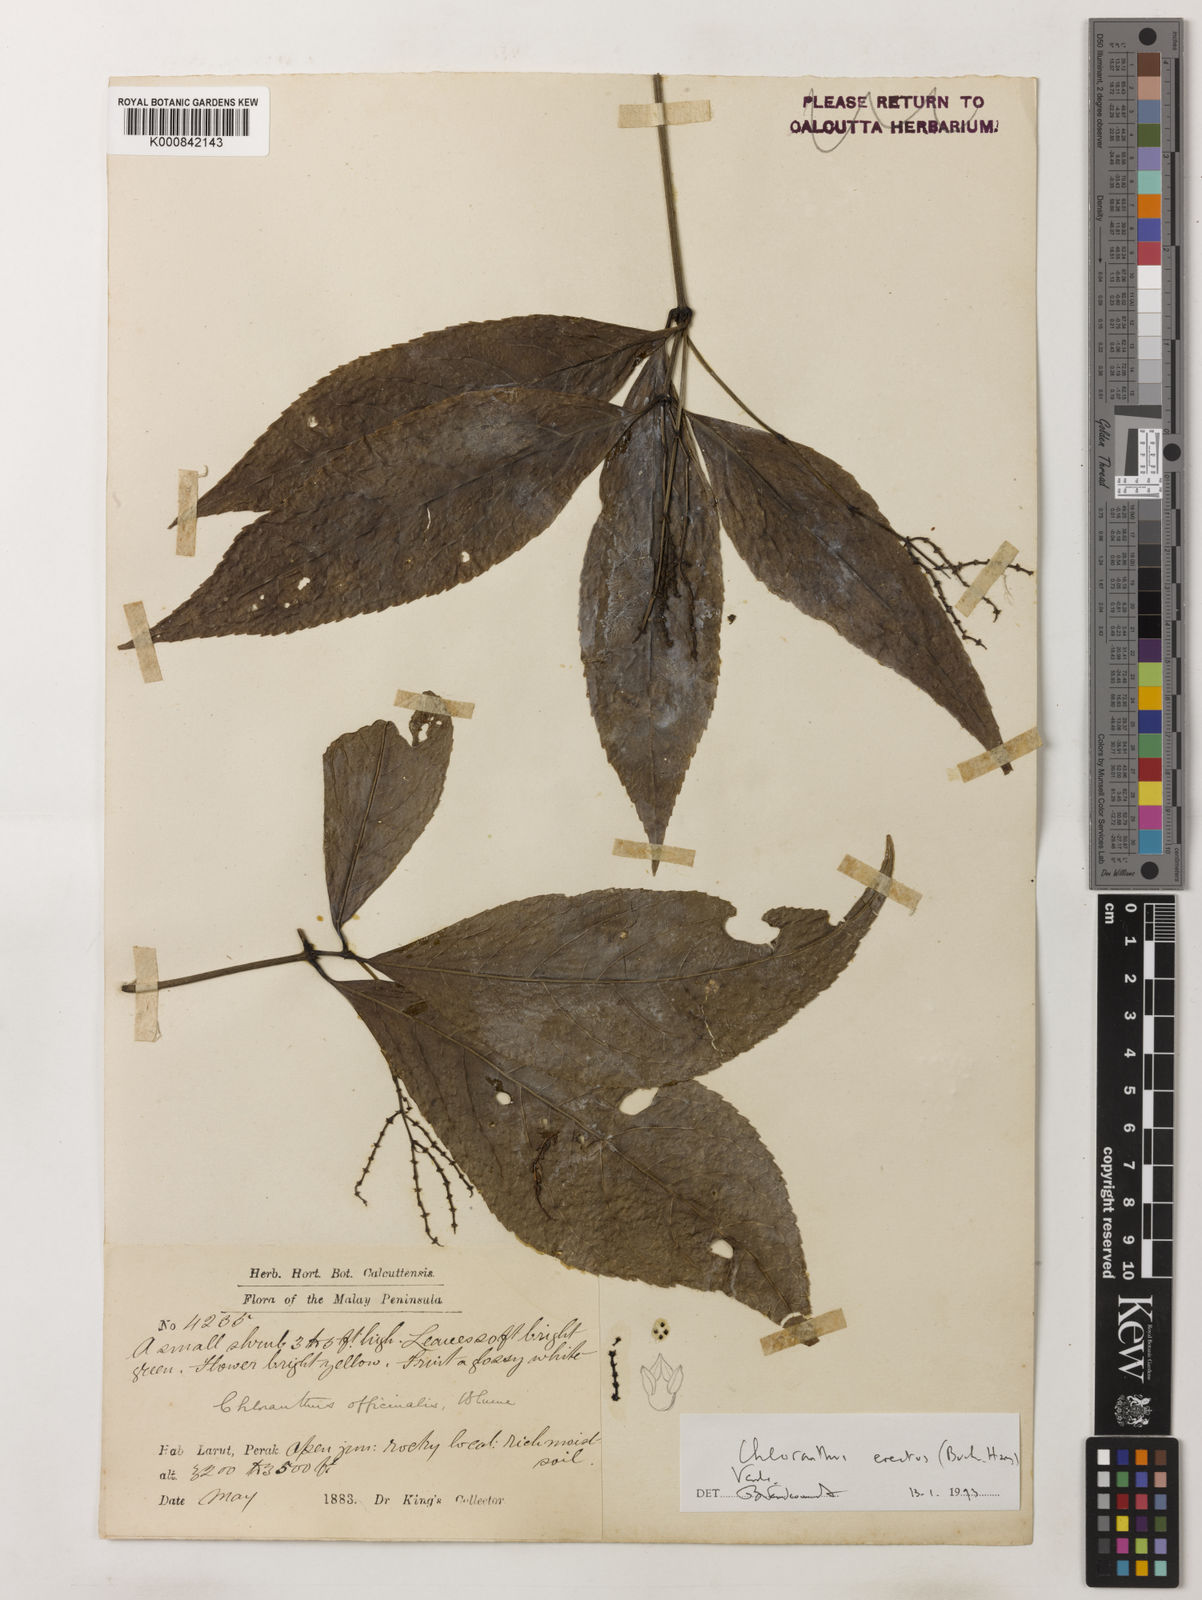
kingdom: Plantae
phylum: Tracheophyta
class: Magnoliopsida
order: Chloranthales
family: Chloranthaceae
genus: Chloranthus
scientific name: Chloranthus
